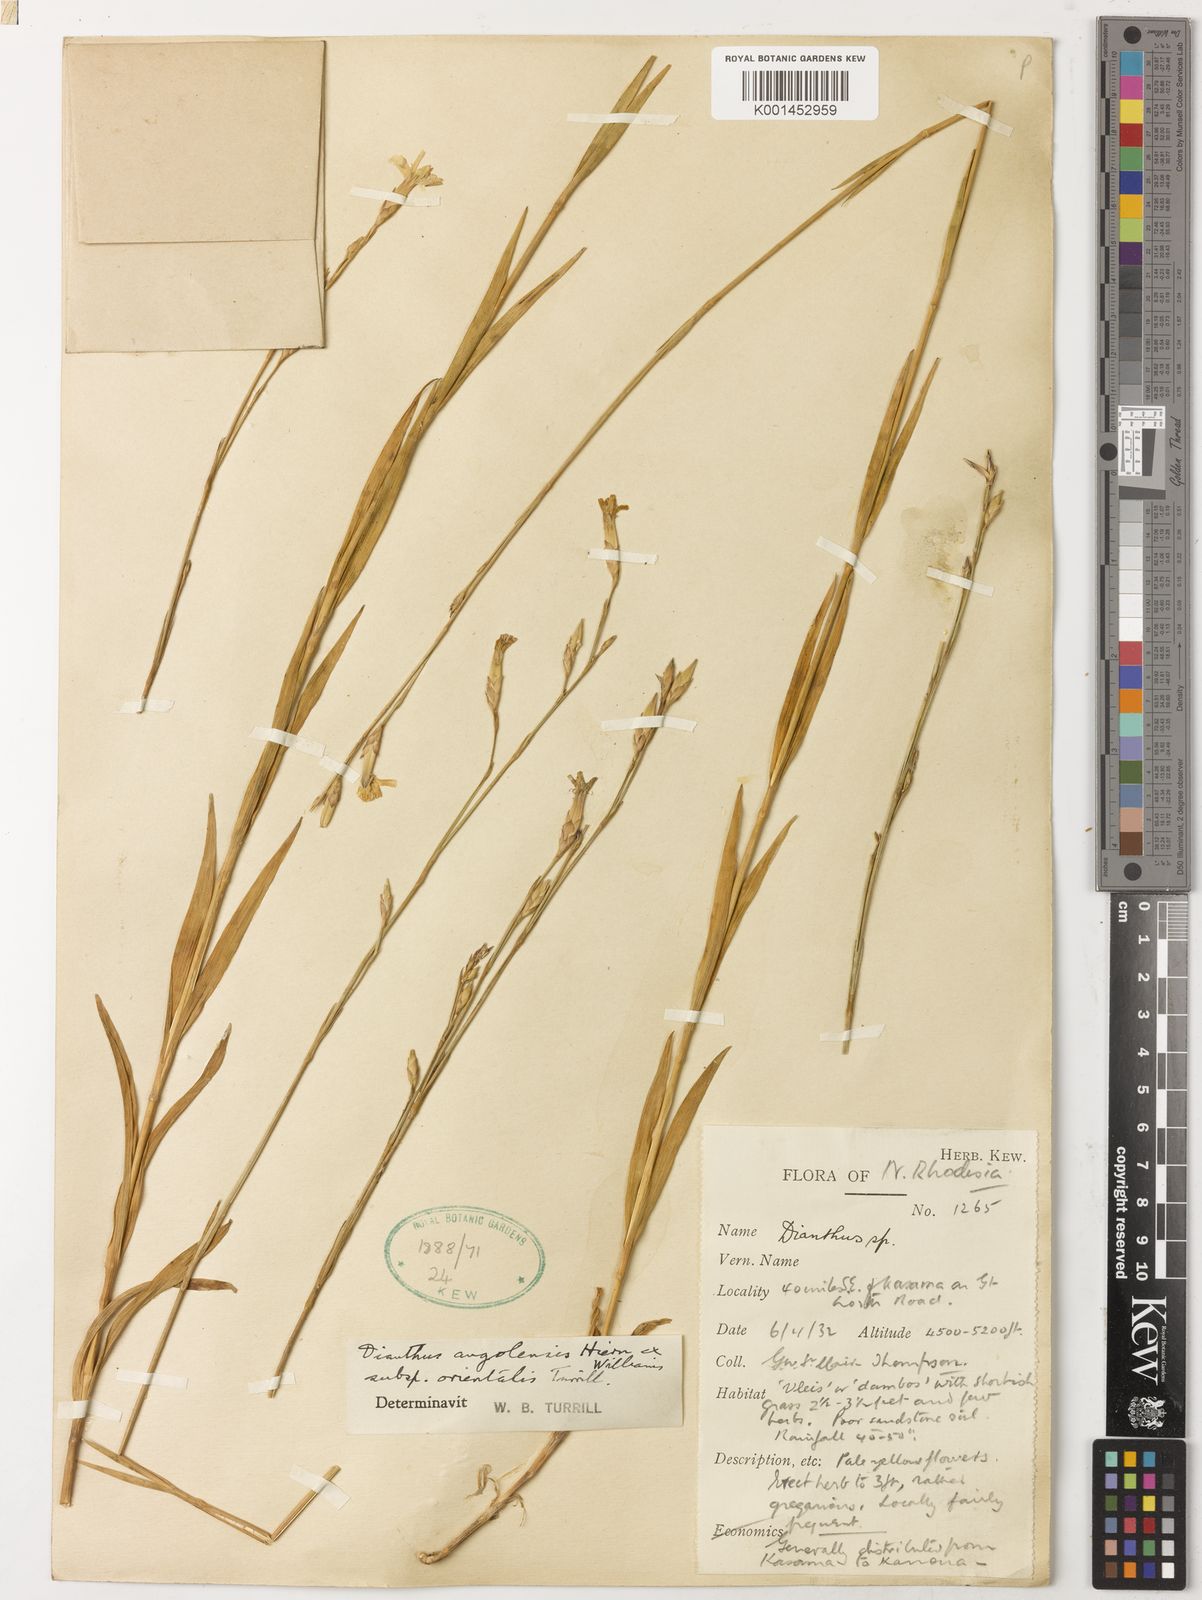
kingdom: Plantae
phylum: Tracheophyta
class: Magnoliopsida
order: Caryophyllales
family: Caryophyllaceae
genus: Dianthus
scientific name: Dianthus angolensis
